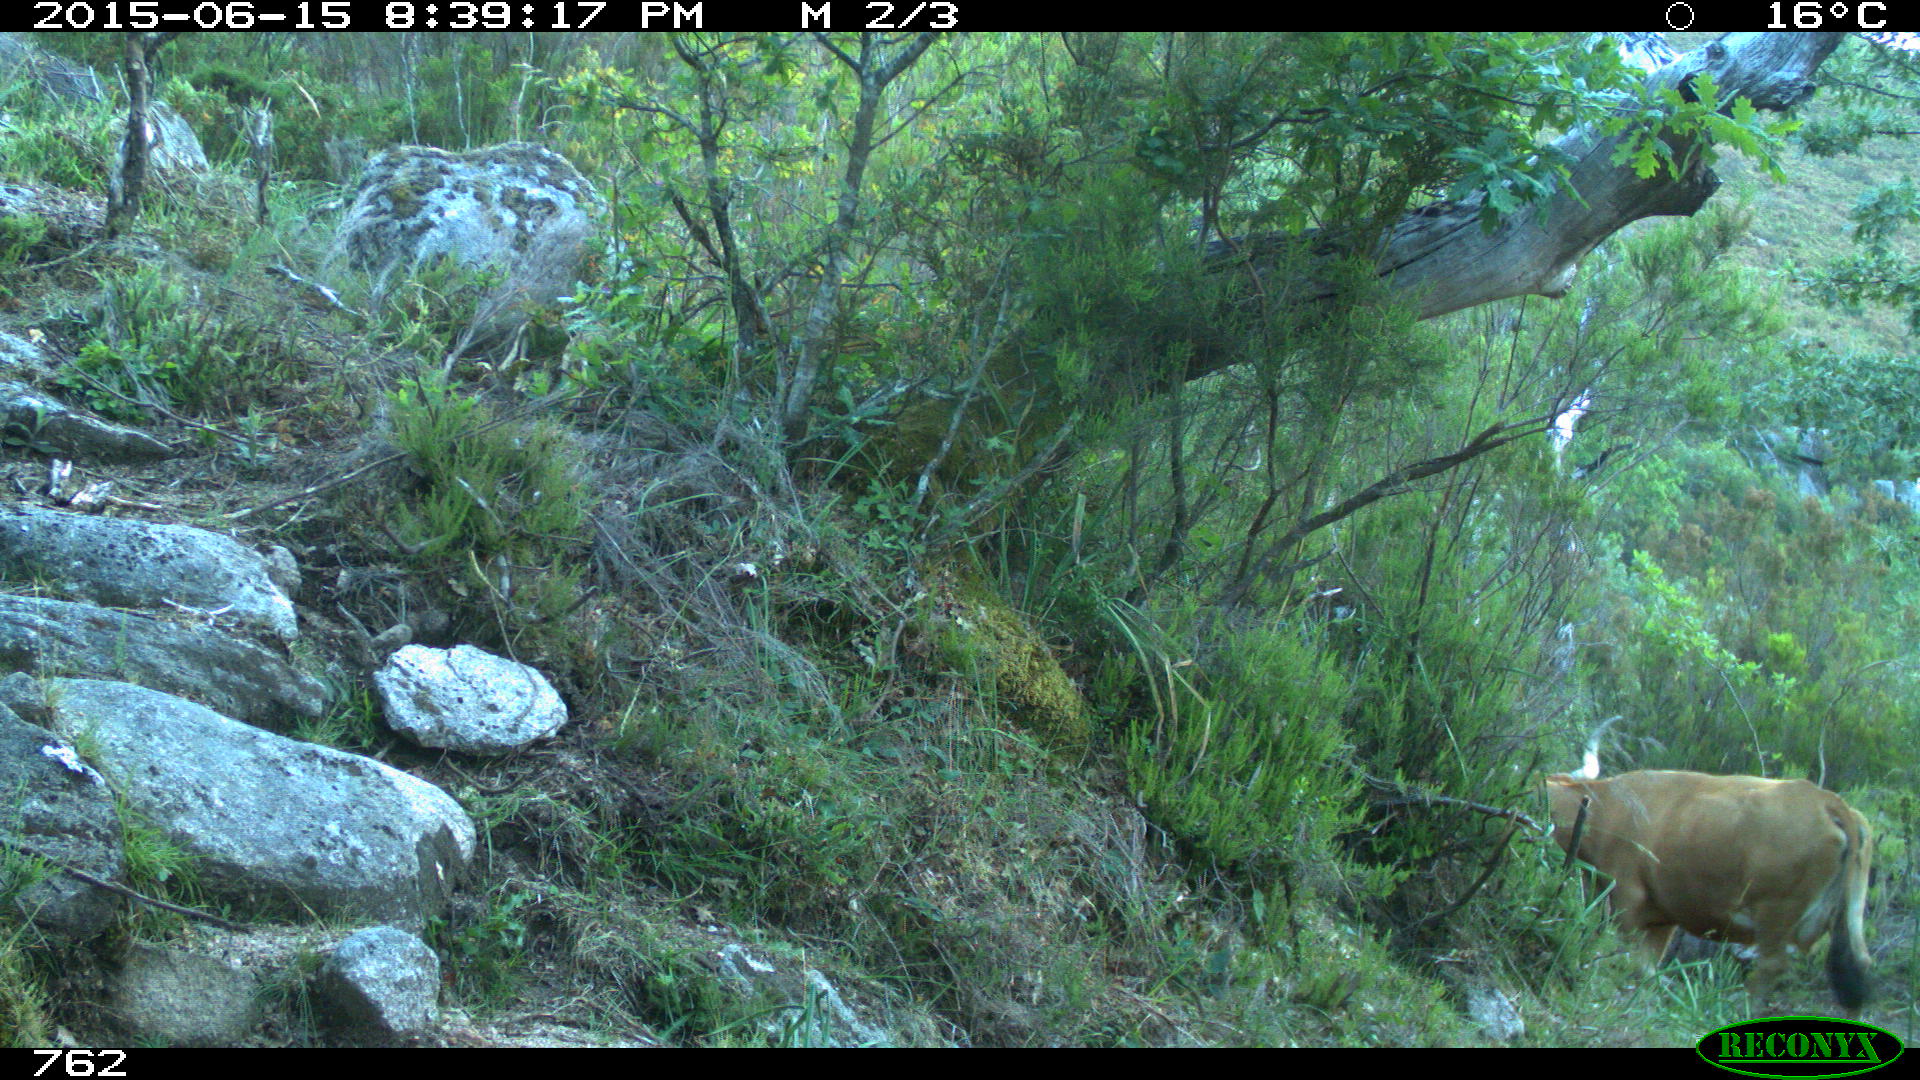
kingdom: Animalia
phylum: Chordata
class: Mammalia
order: Artiodactyla
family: Bovidae
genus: Bos
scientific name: Bos taurus
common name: Domesticated cattle
